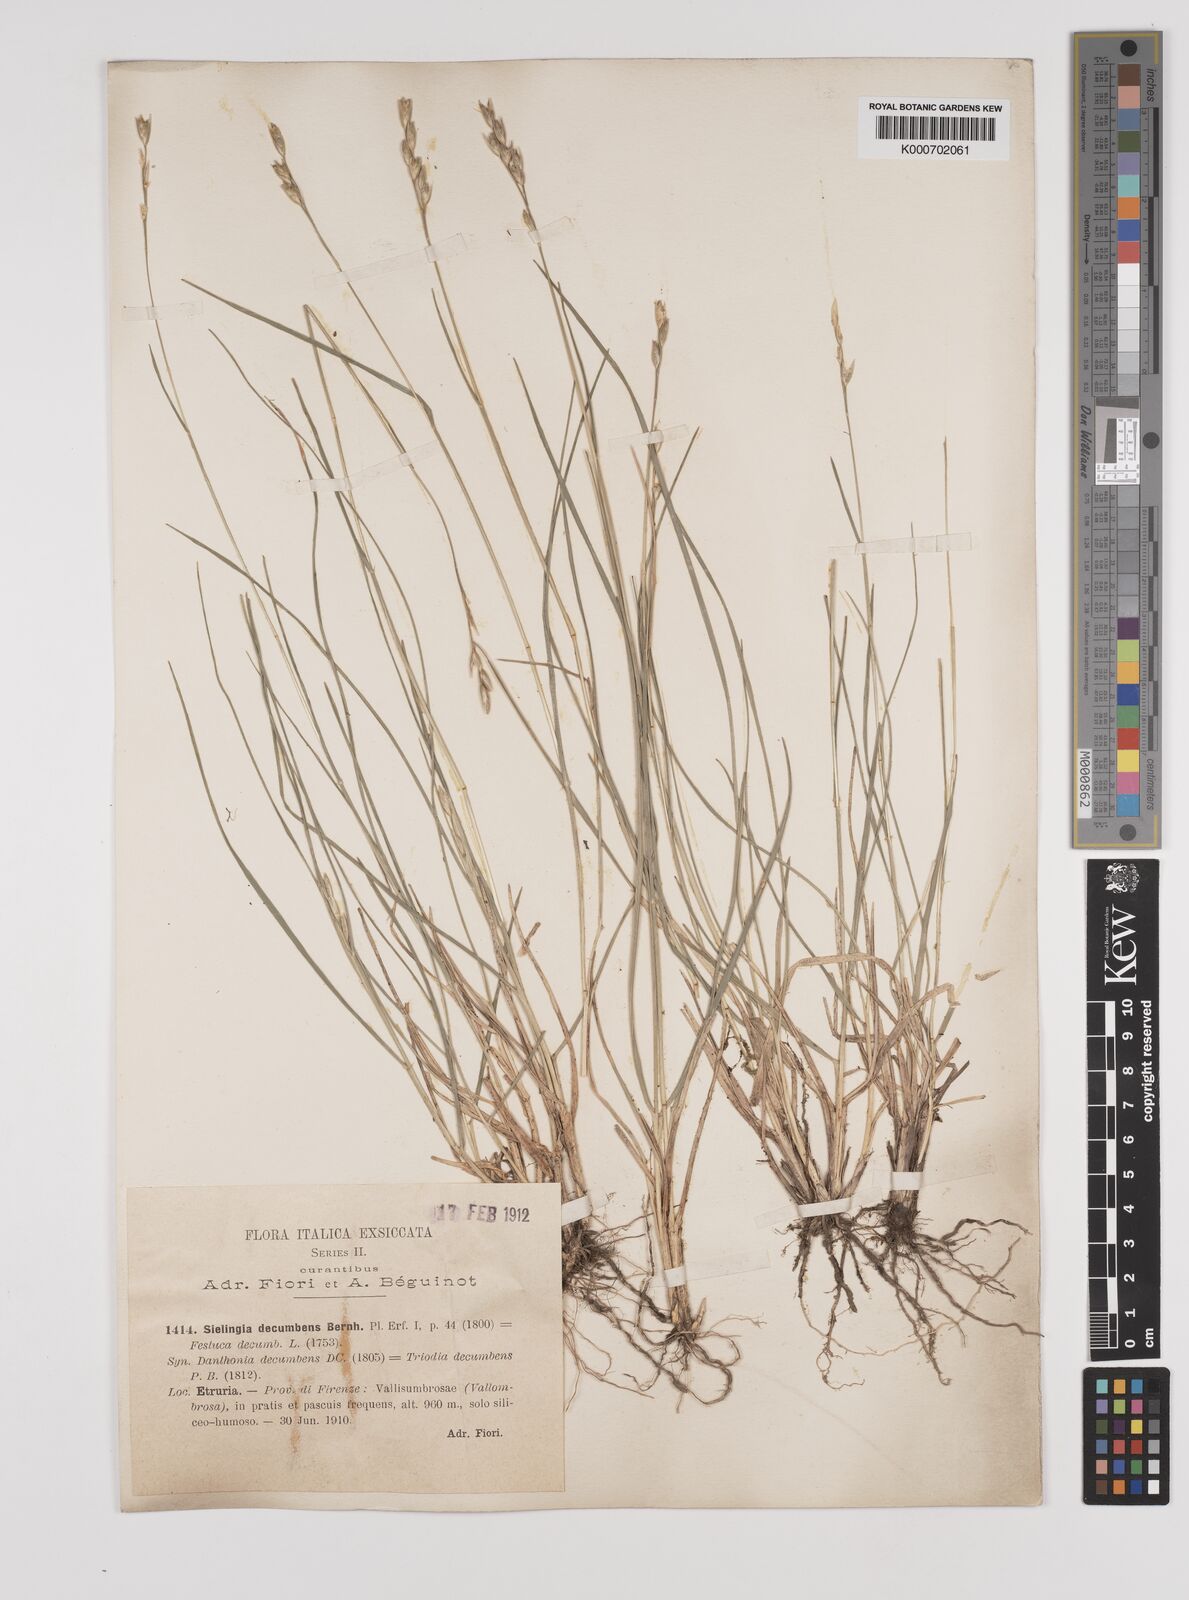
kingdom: Plantae
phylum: Tracheophyta
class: Liliopsida
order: Poales
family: Poaceae
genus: Danthonia
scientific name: Danthonia decumbens
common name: Common heathgrass
